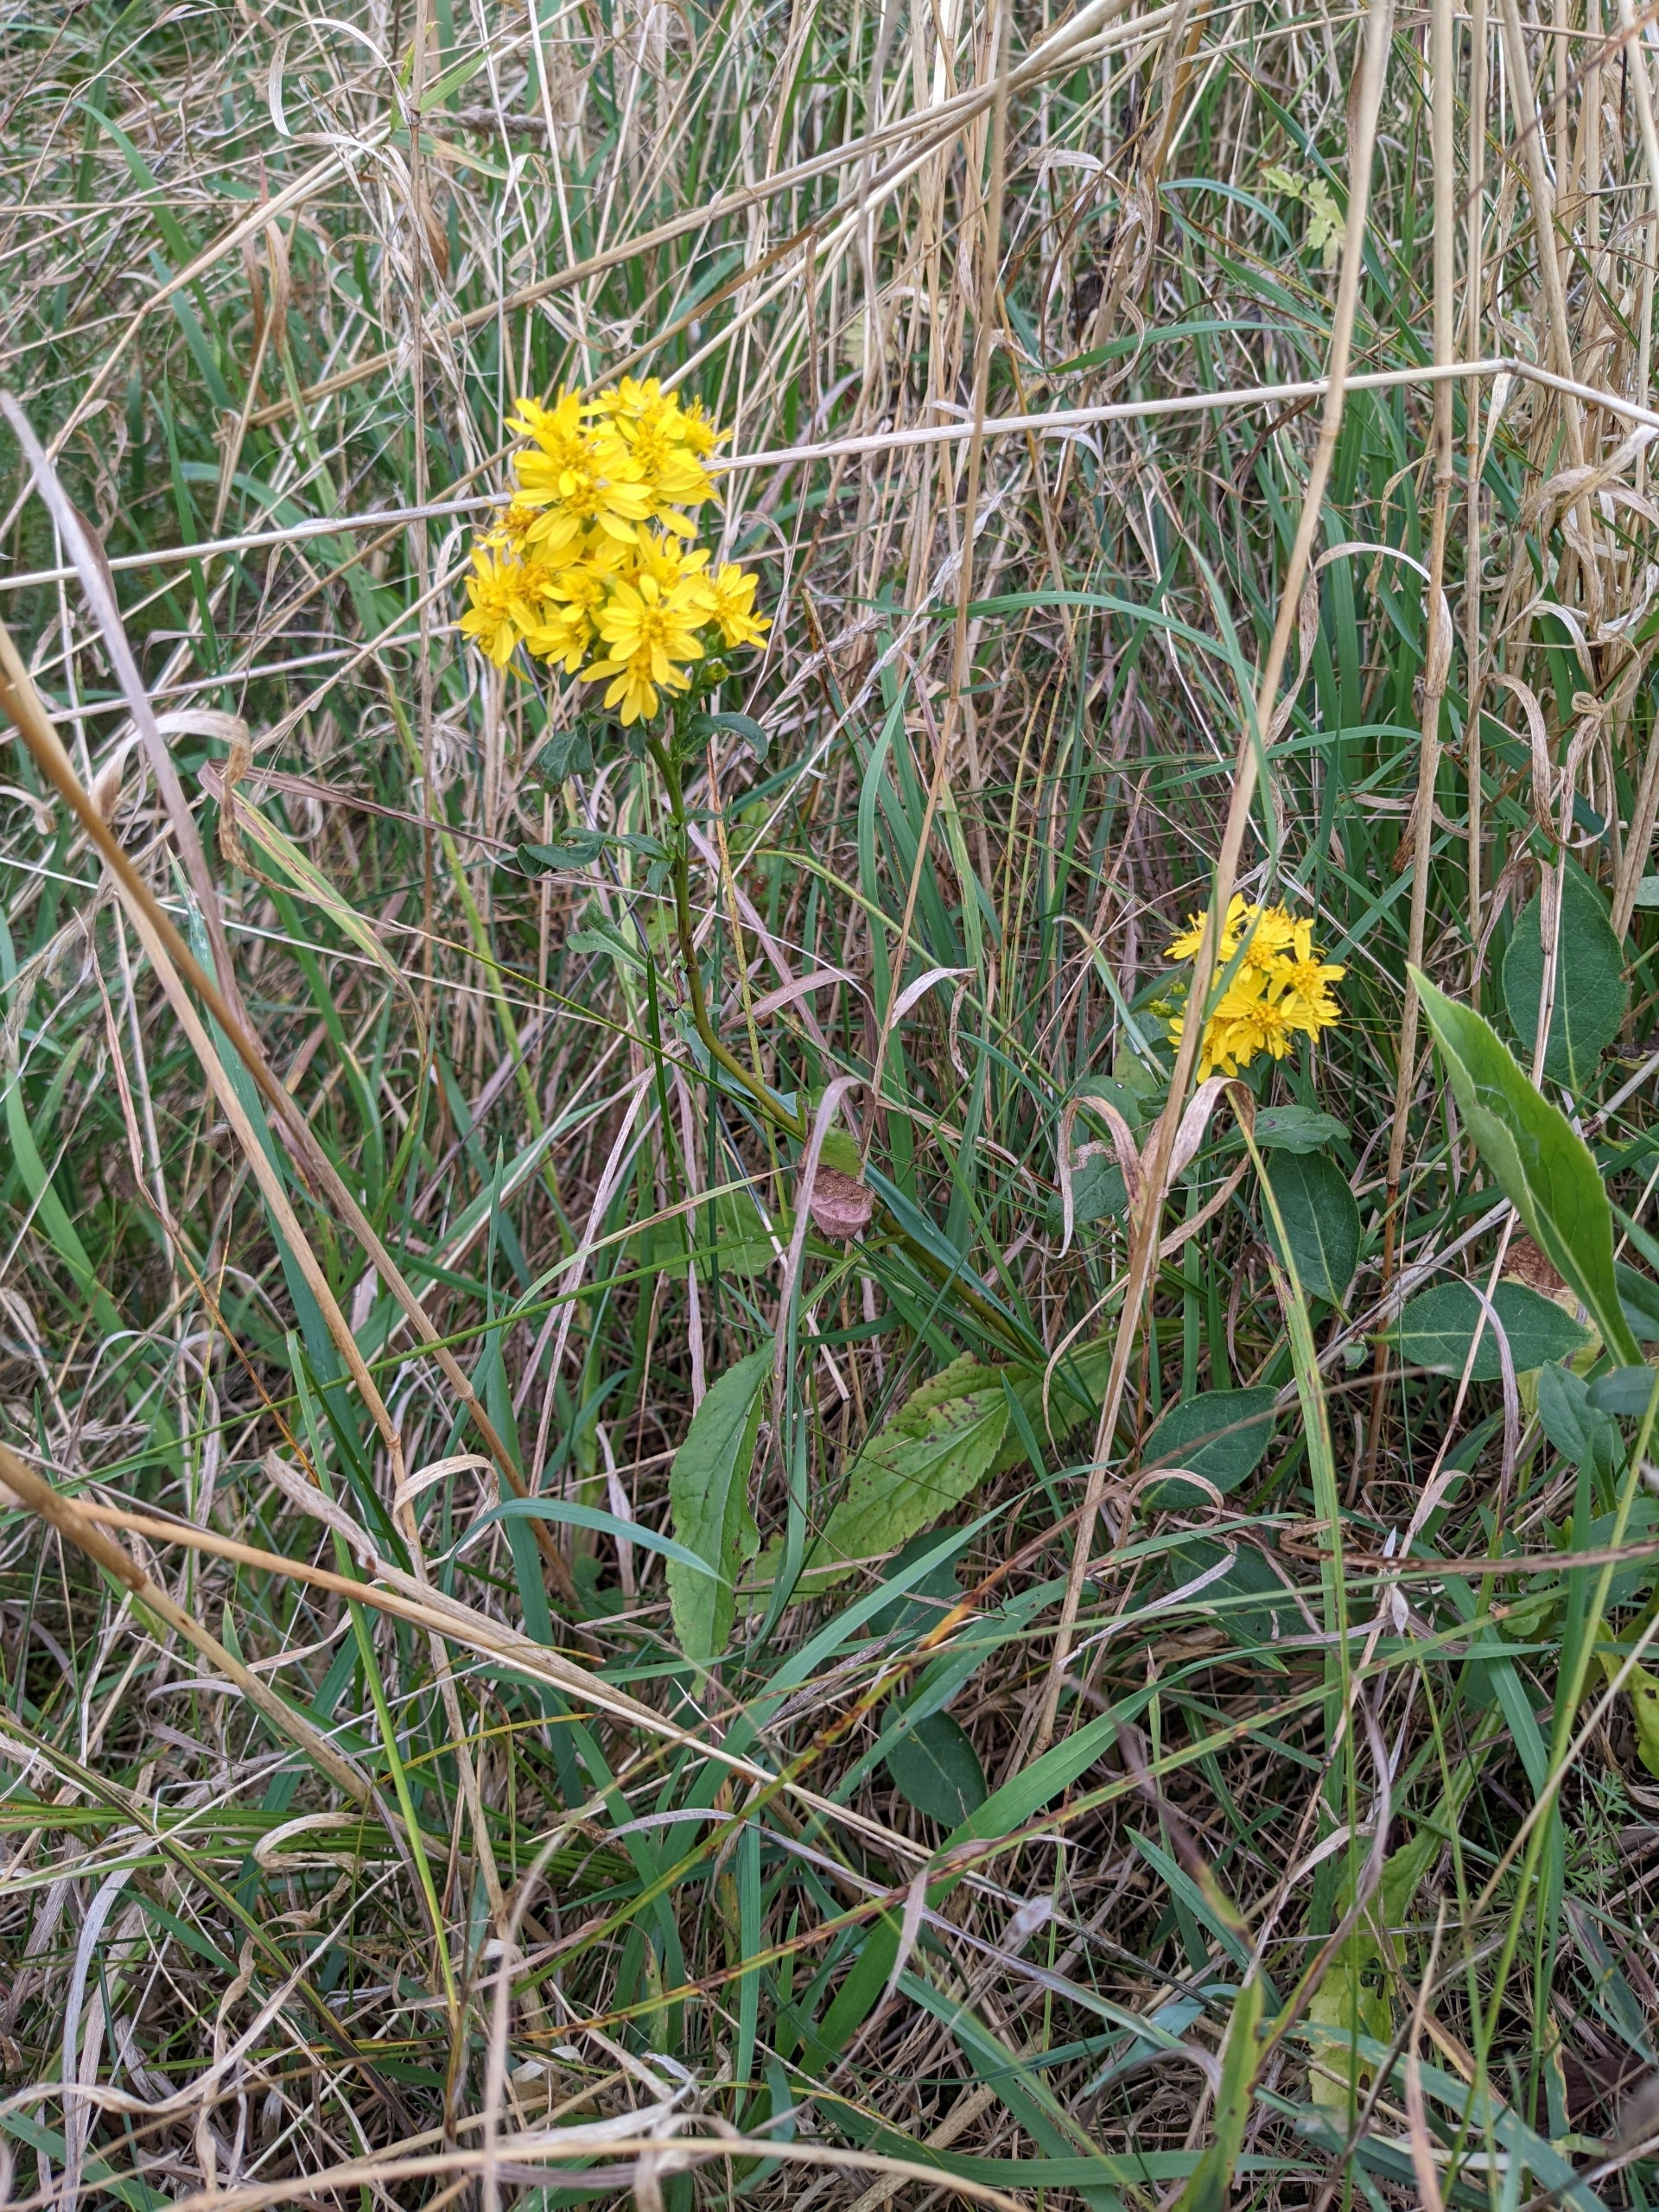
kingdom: Plantae
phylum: Tracheophyta
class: Magnoliopsida
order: Asterales
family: Asteraceae
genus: Solidago
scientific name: Solidago virgaurea
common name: Almindelig gyldenris
